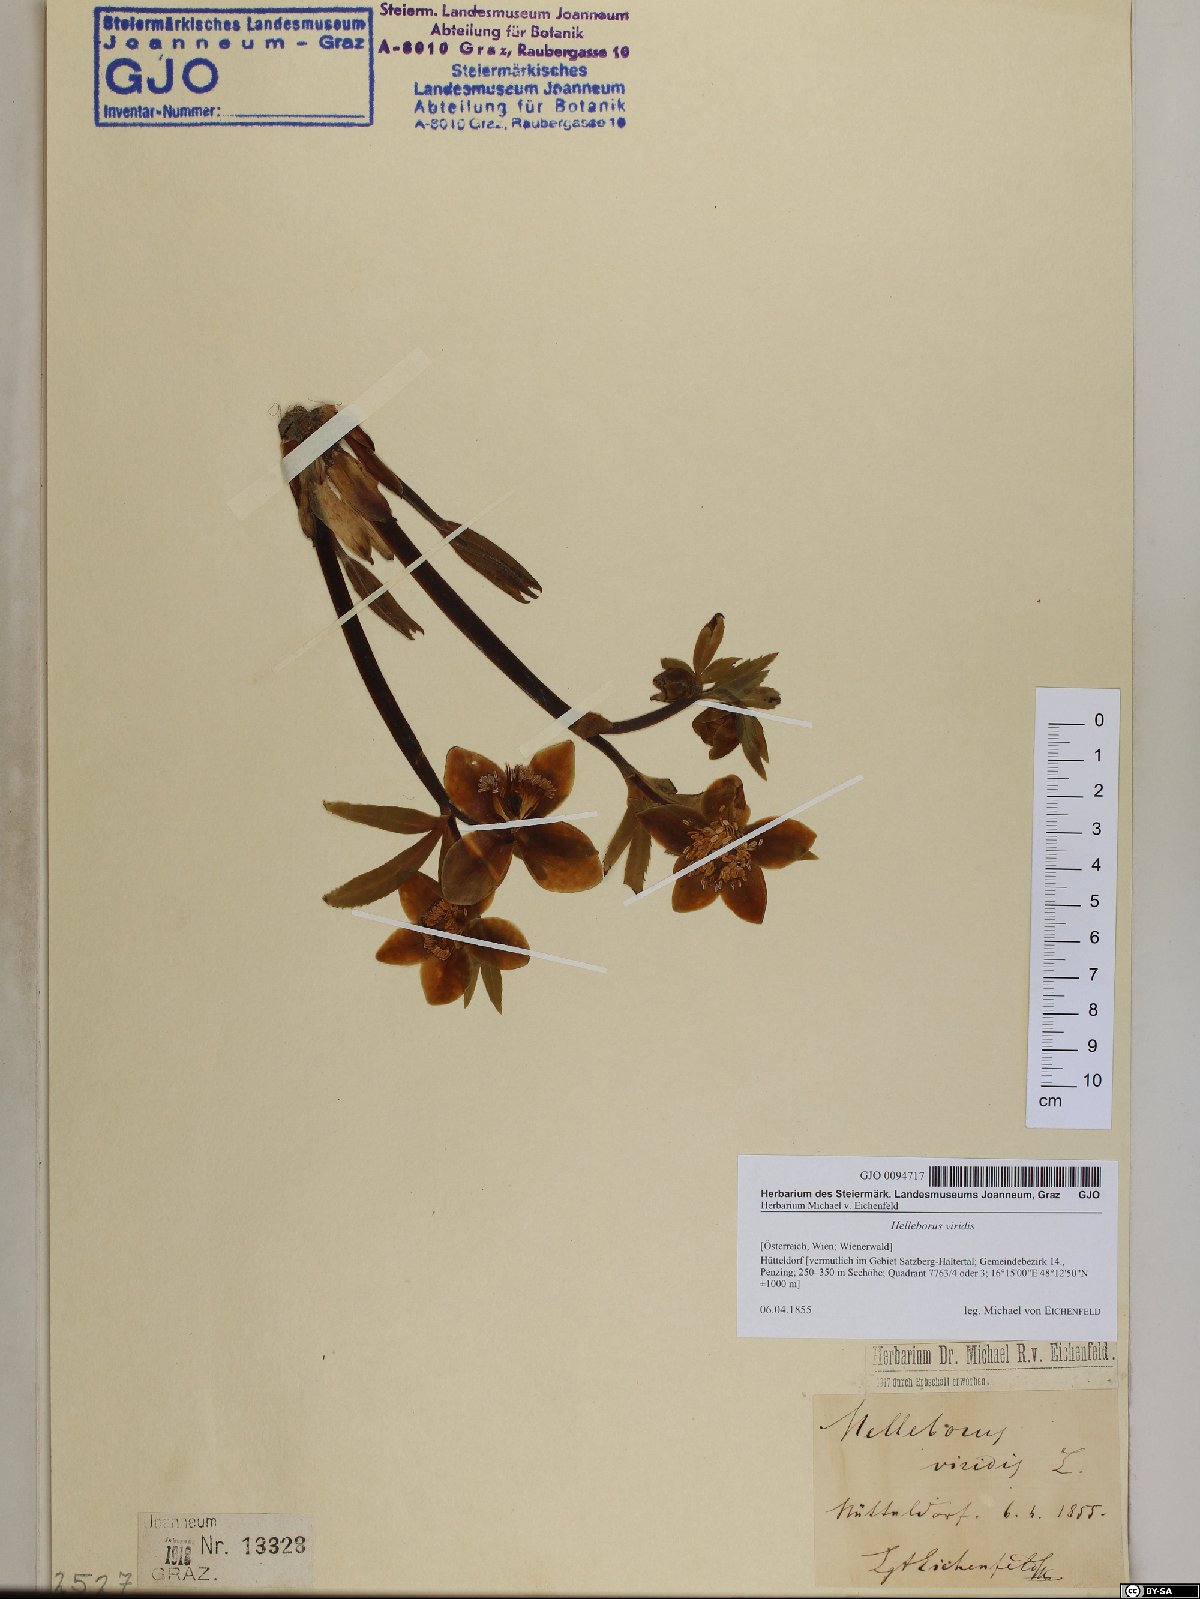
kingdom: Plantae
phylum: Tracheophyta
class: Magnoliopsida
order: Ranunculales
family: Ranunculaceae
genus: Helleborus
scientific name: Helleborus viridis
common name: Green hellebore
